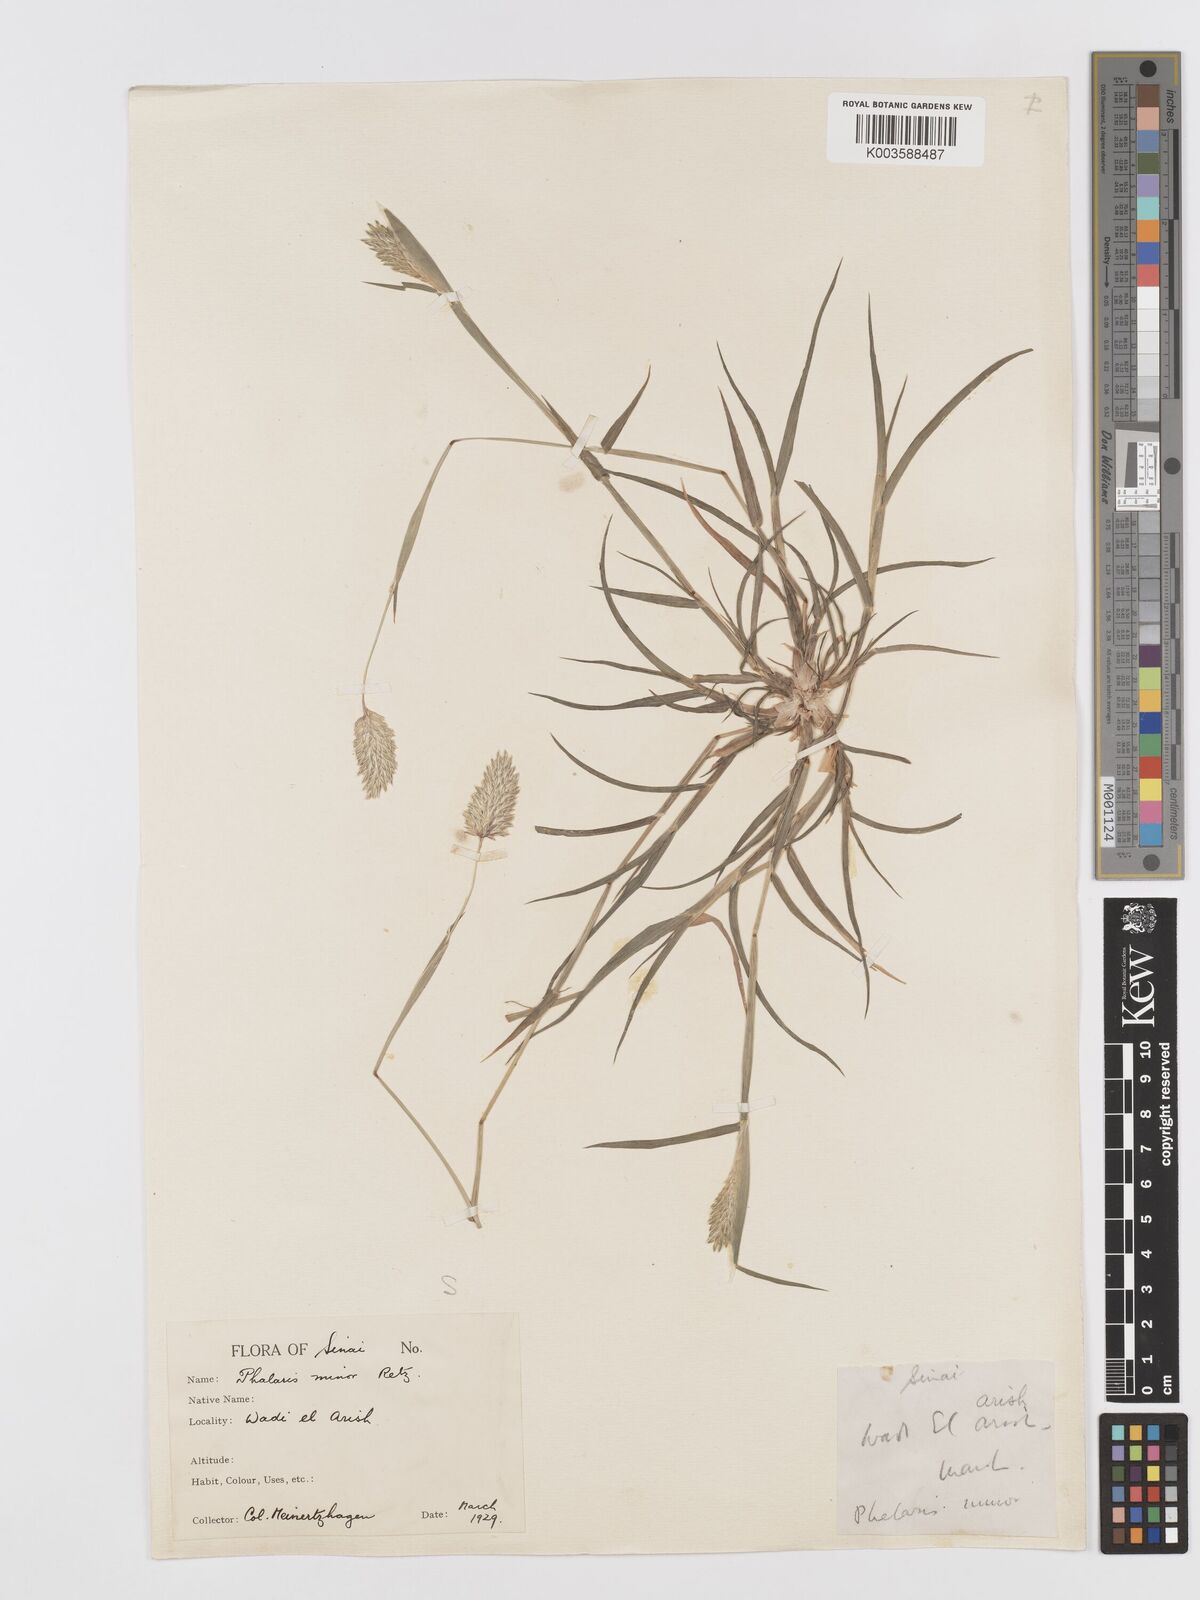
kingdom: Plantae
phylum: Tracheophyta
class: Liliopsida
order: Poales
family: Poaceae
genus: Phalaris
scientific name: Phalaris minor
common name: Littleseed canarygrass
